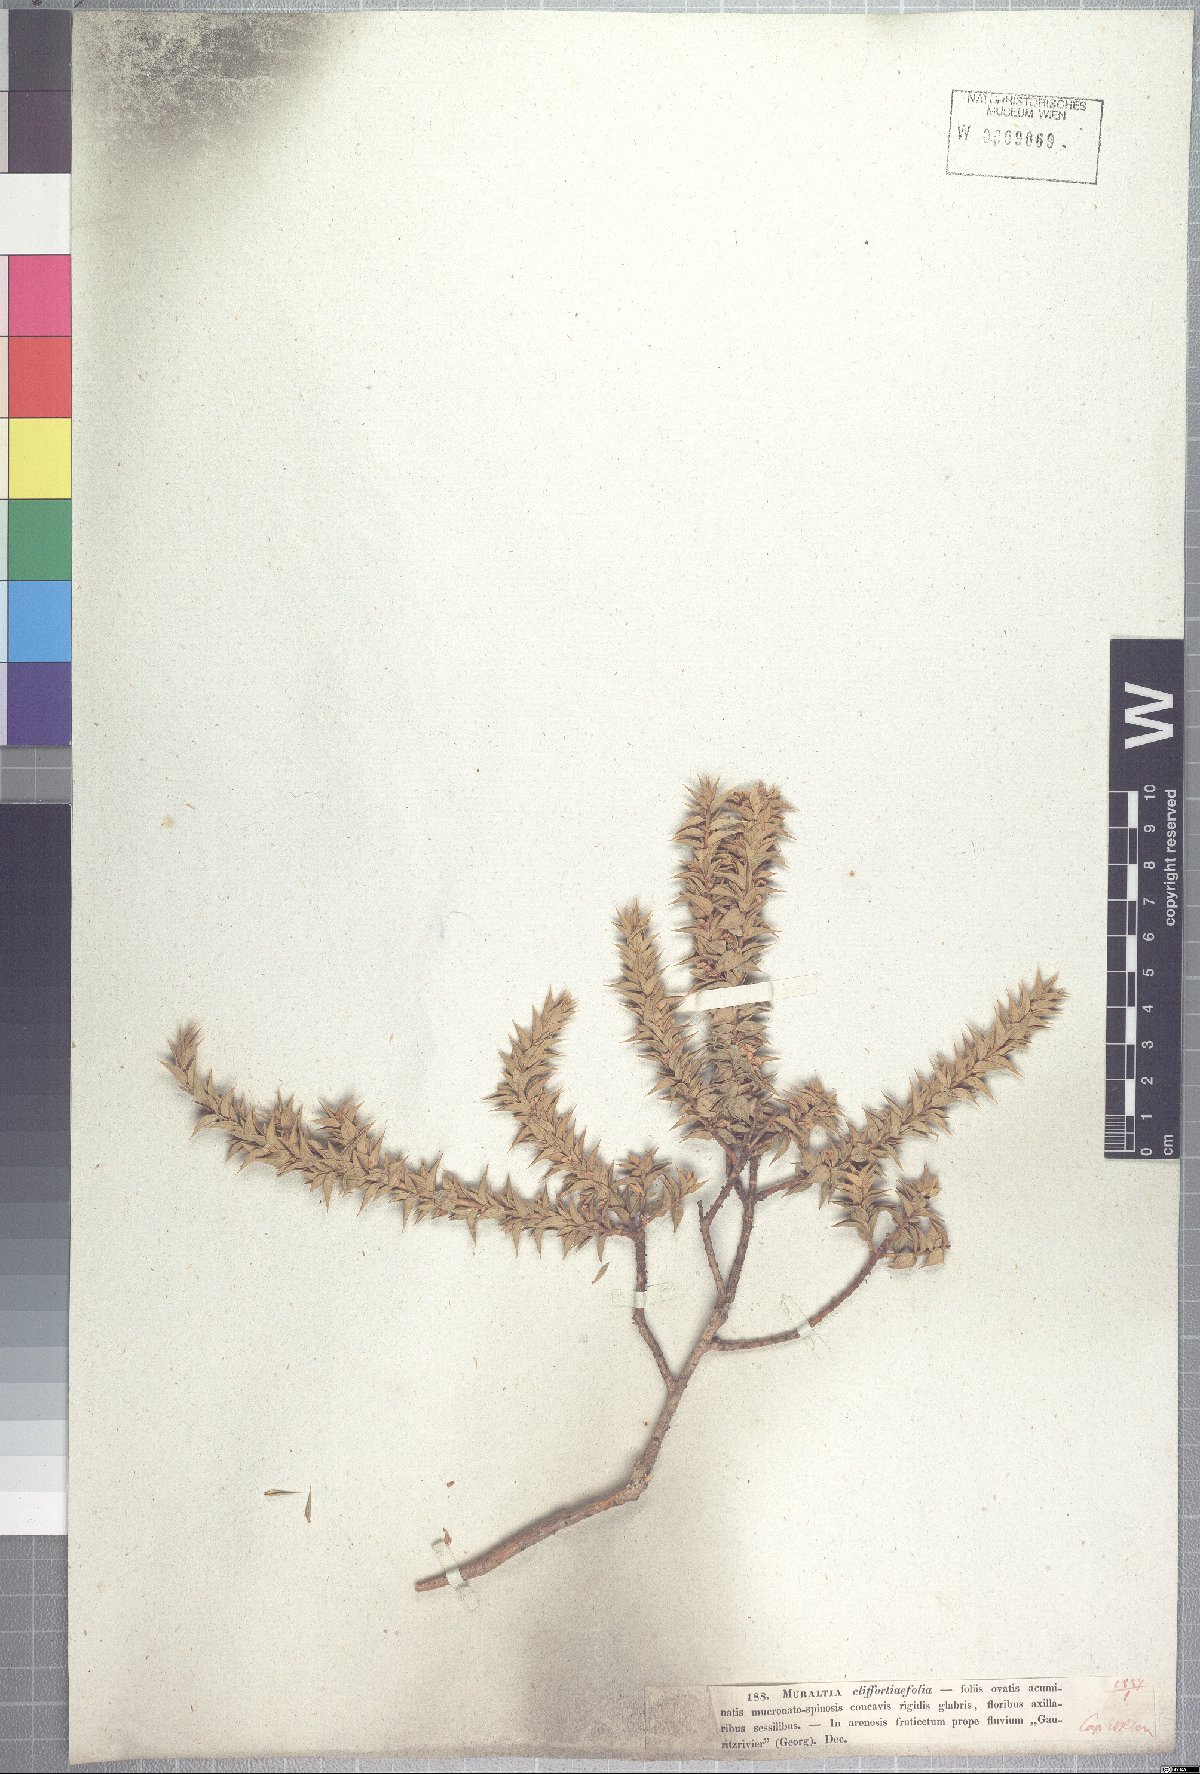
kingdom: Plantae
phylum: Tracheophyta
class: Magnoliopsida
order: Fabales
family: Polygalaceae
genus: Muraltia
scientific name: Muraltia cliffortiifolia
